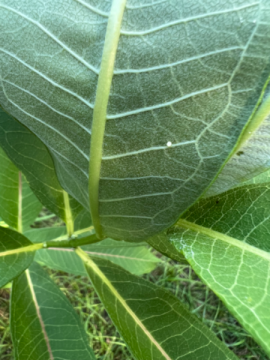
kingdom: Animalia
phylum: Arthropoda
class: Insecta
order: Lepidoptera
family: Nymphalidae
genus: Danaus
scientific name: Danaus plexippus
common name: Monarch
